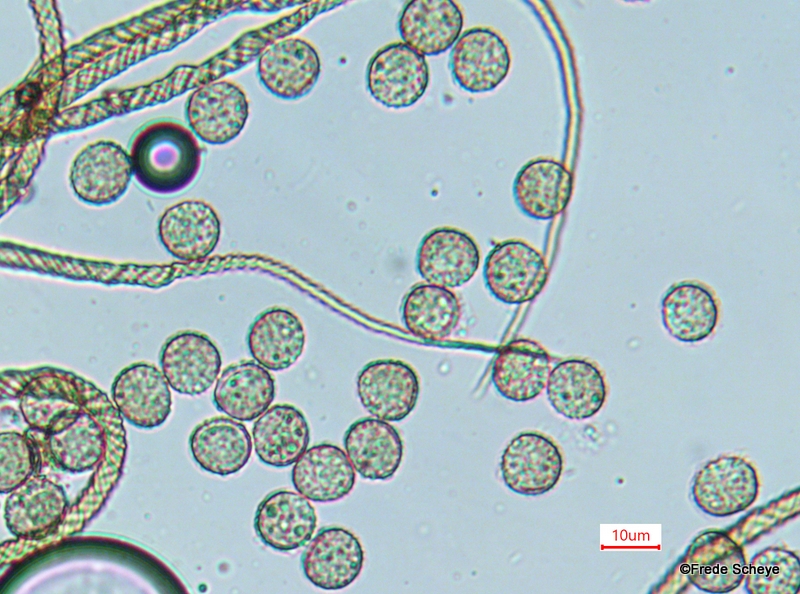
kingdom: Protozoa
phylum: Mycetozoa
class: Myxomycetes
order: Trichiales
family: Trichiaceae
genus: Trichia
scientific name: Trichia crateriformis
